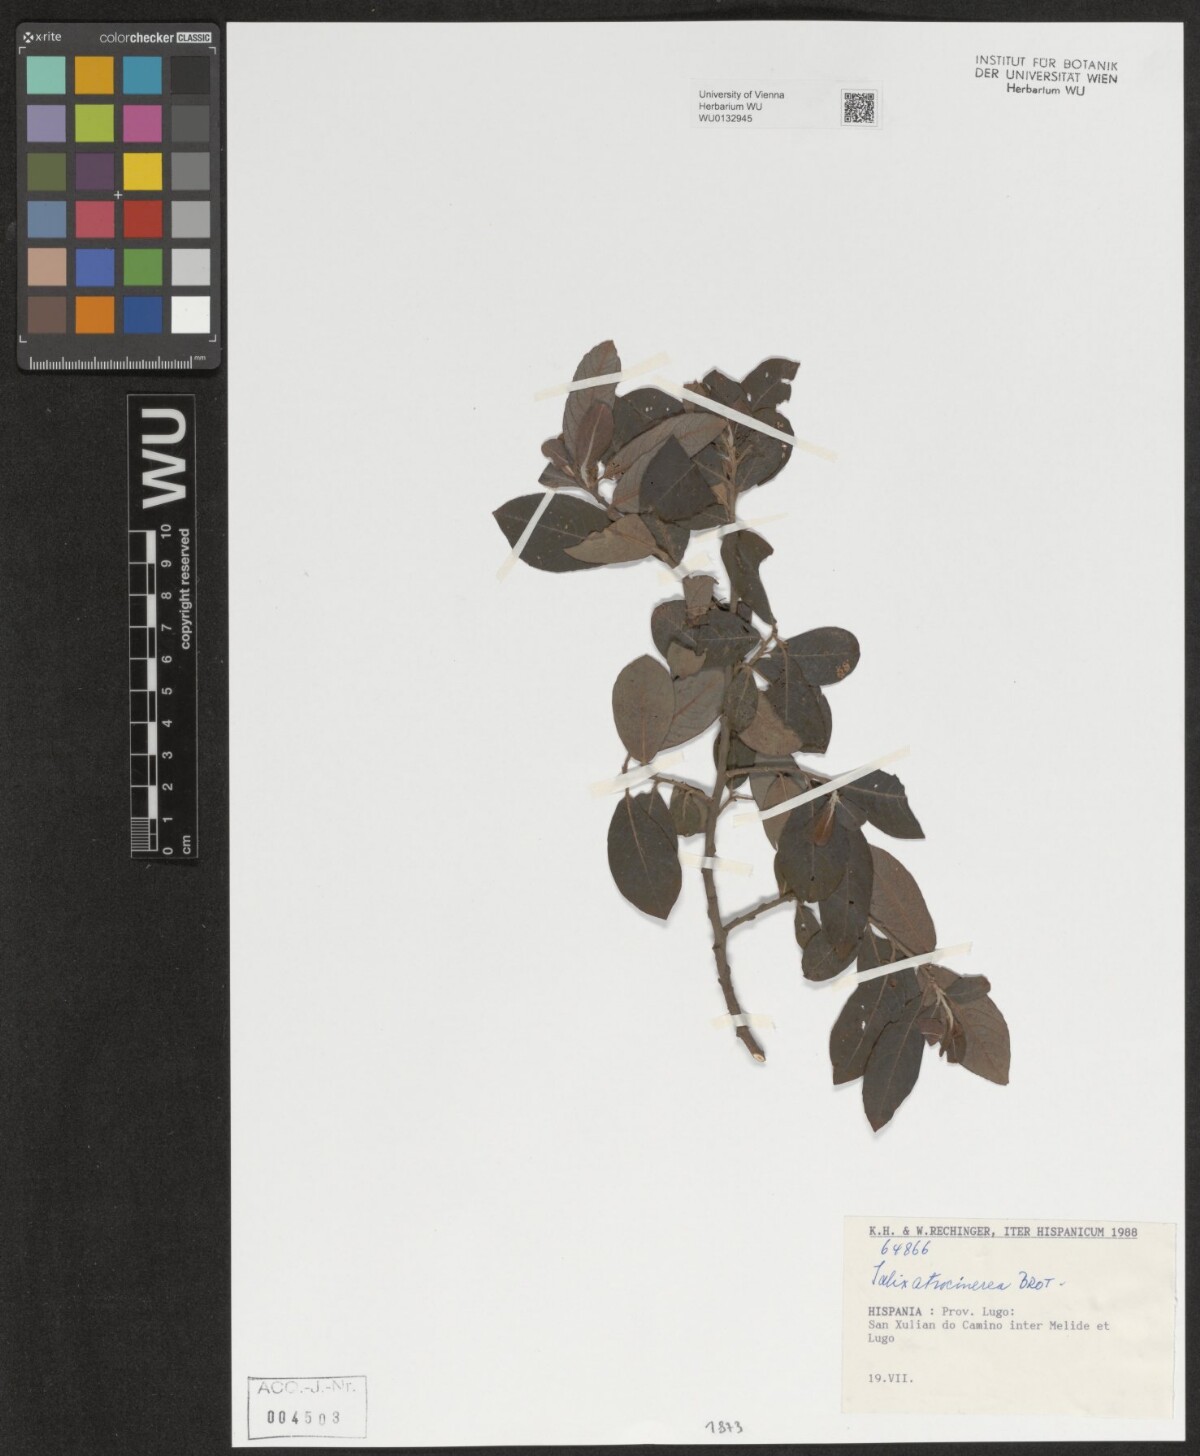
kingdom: Plantae
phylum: Tracheophyta
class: Magnoliopsida
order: Malpighiales
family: Salicaceae
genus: Salix
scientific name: Salix atrocinerea
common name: Rusty willow
